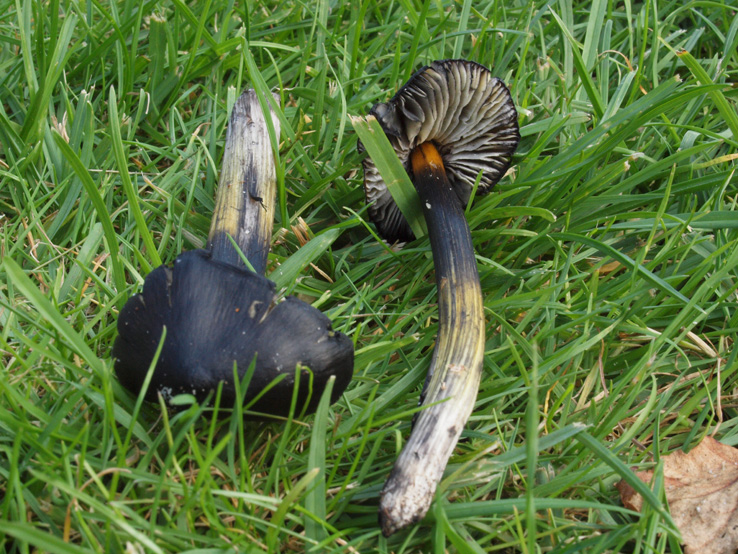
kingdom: Fungi
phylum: Basidiomycota
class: Agaricomycetes
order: Agaricales
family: Hygrophoraceae
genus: Hygrocybe
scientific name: Hygrocybe conica
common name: kegle-vokshat
